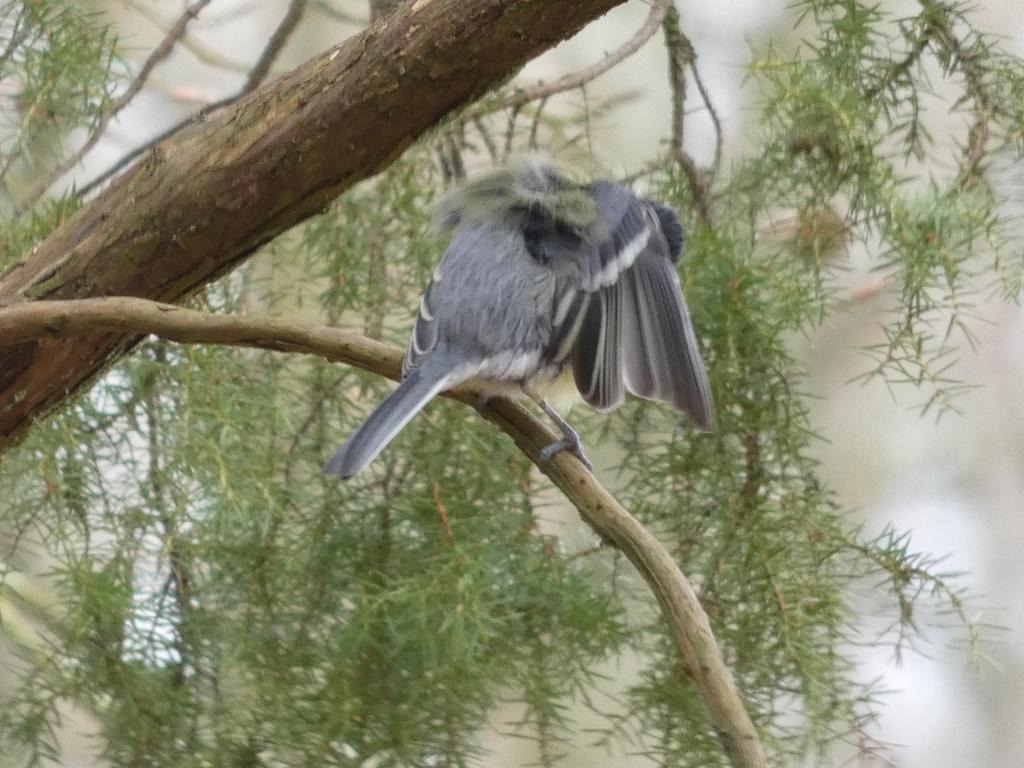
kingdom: Animalia
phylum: Chordata
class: Aves
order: Passeriformes
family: Paridae
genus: Parus
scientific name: Parus major
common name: Musvit
